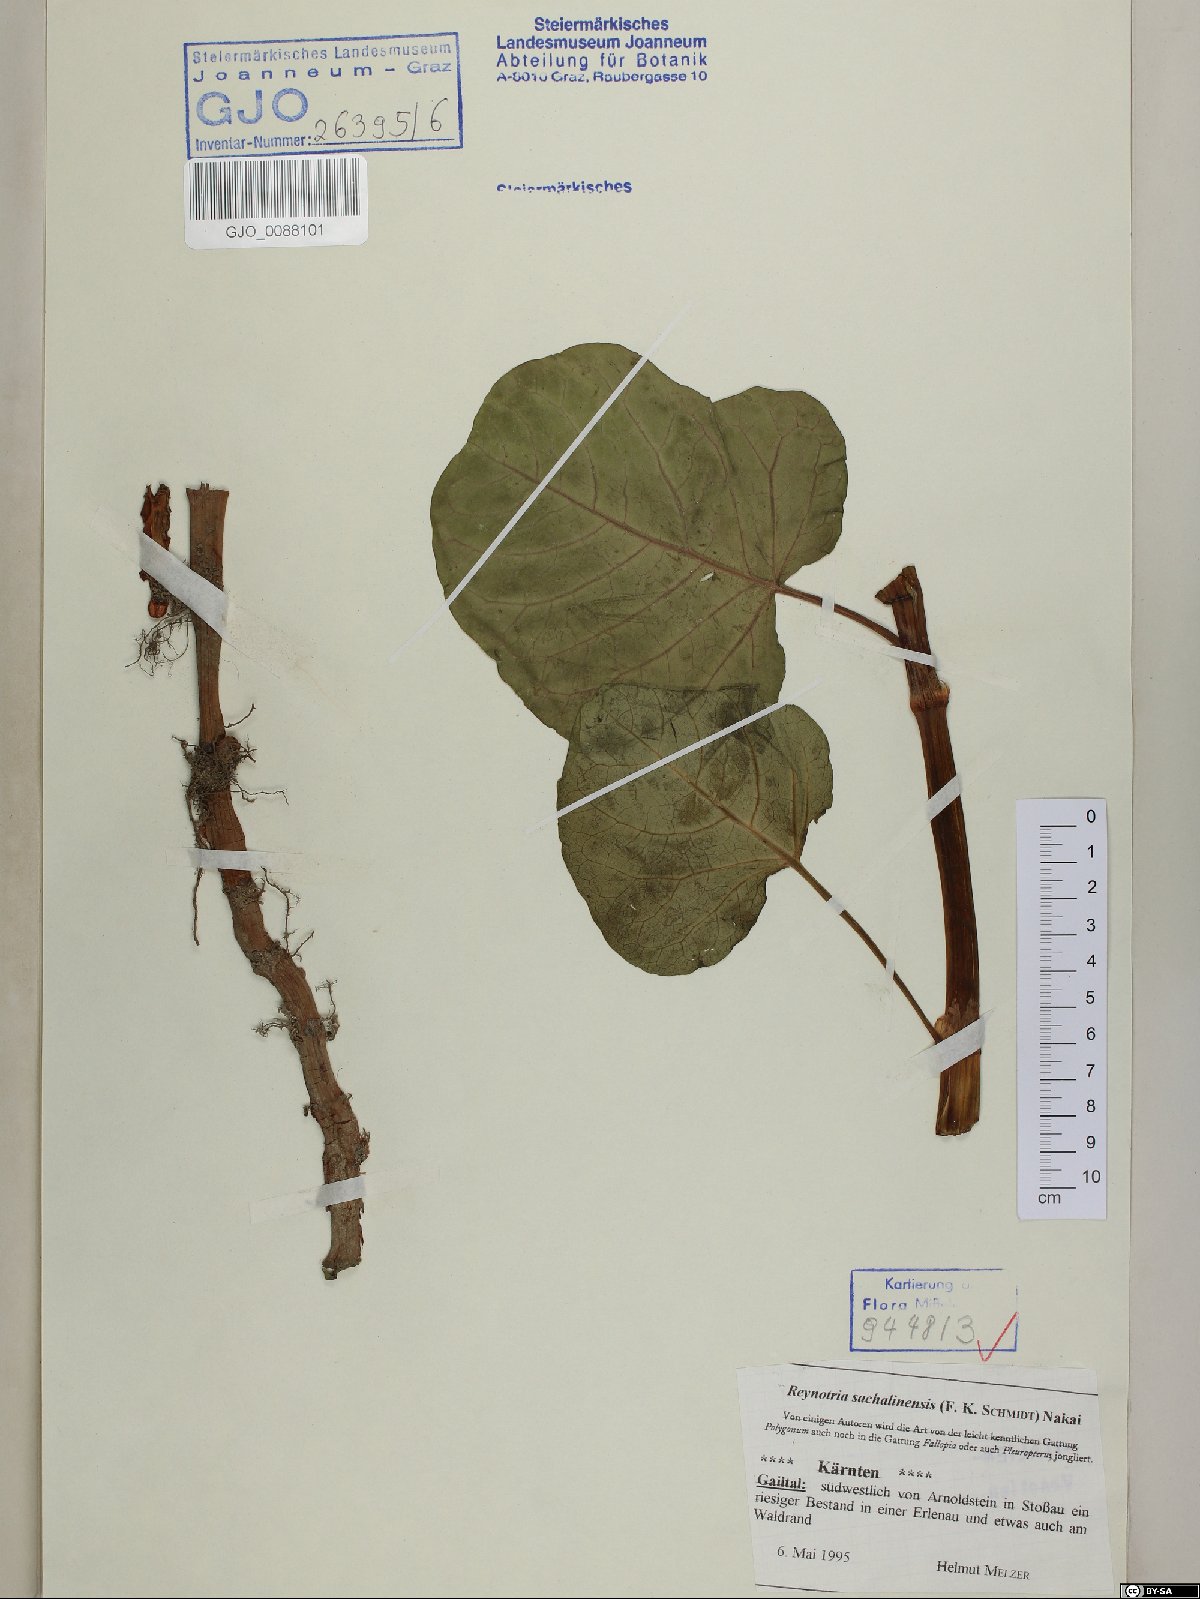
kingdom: Plantae
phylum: Tracheophyta
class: Magnoliopsida
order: Caryophyllales
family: Polygonaceae
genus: Reynoutria
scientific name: Reynoutria sachalinensis
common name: Giant knotweed
